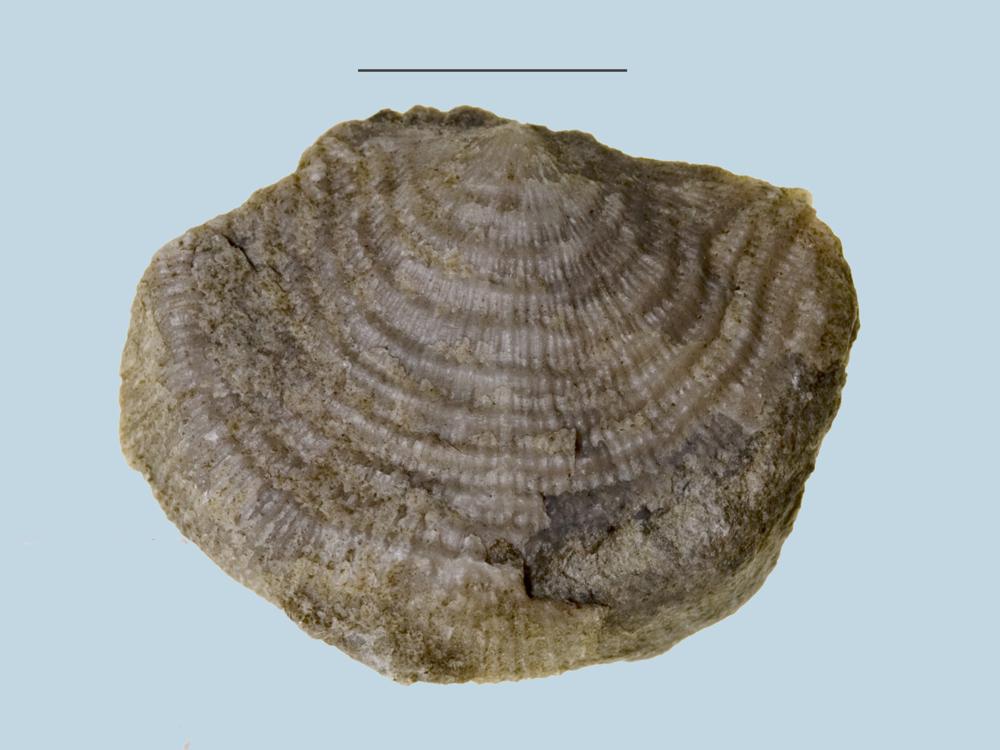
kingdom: Animalia
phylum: Brachiopoda
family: Strophomenidae
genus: Leptaena
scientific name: Leptaena
